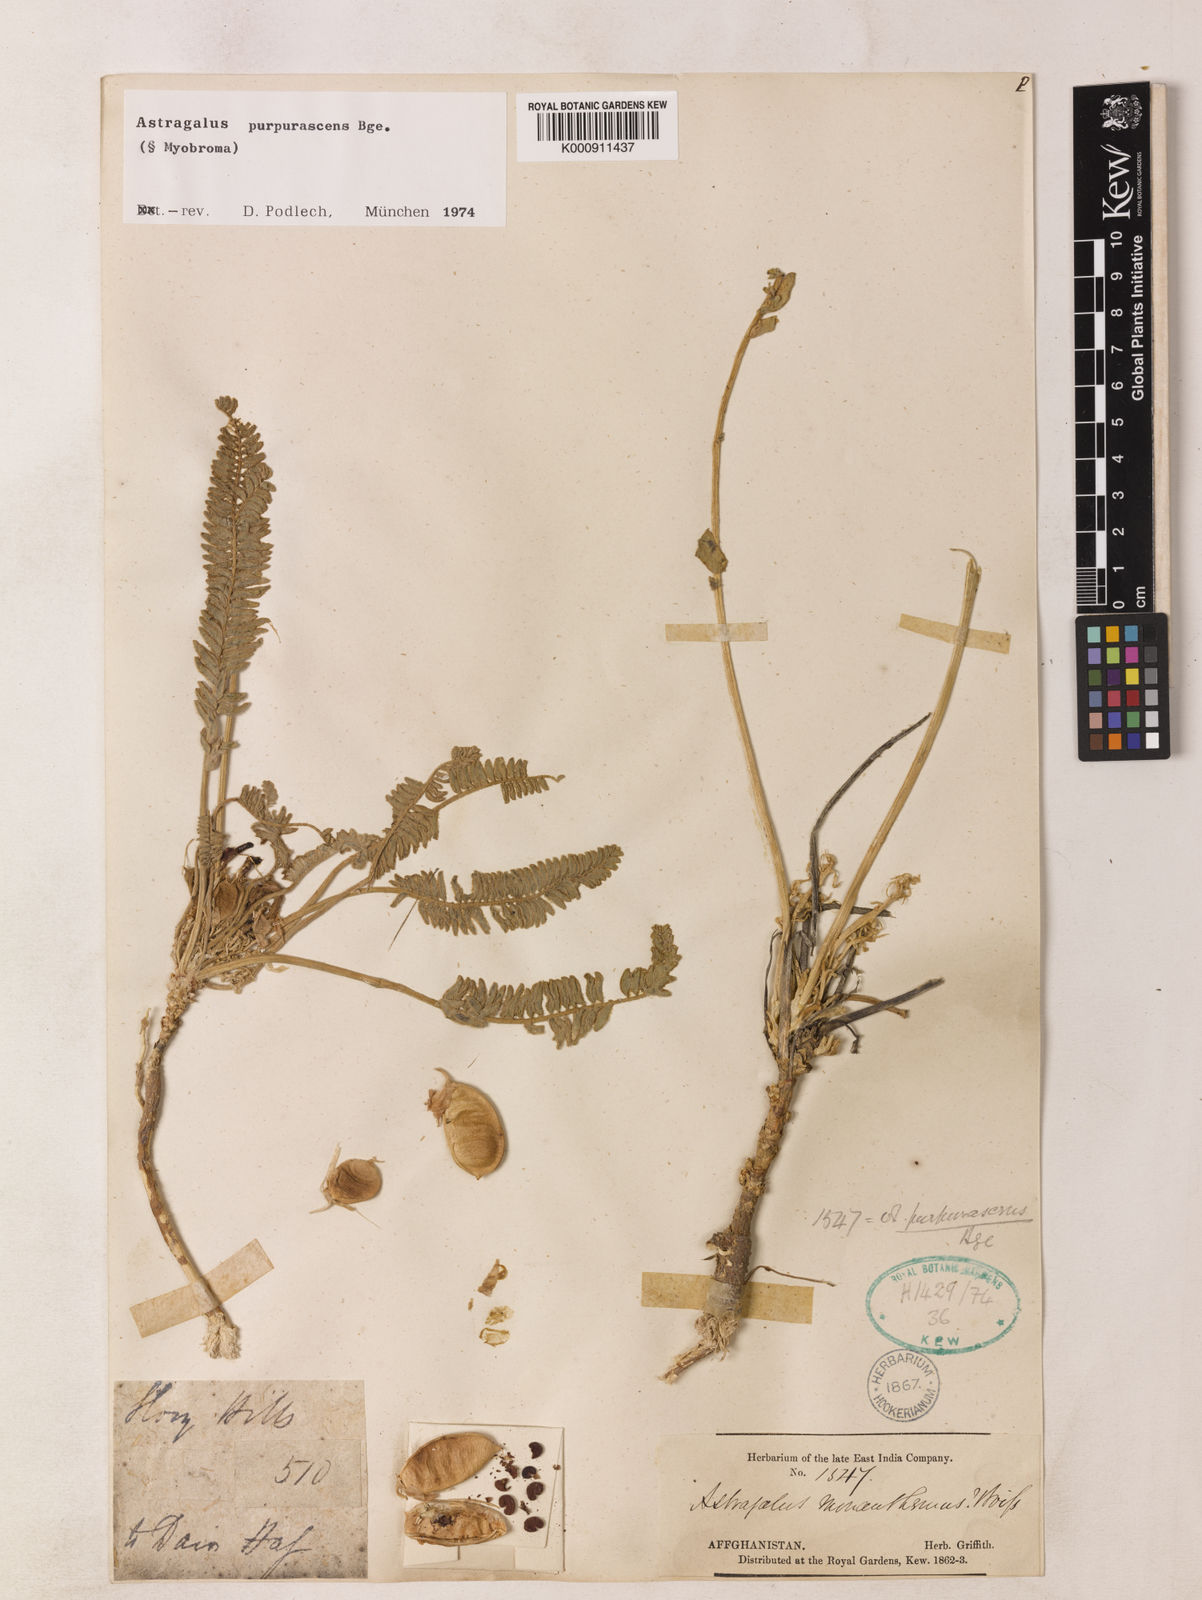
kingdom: Plantae
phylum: Tracheophyta
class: Magnoliopsida
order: Fabales
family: Fabaceae
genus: Astragalus
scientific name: Astragalus purpurascens
